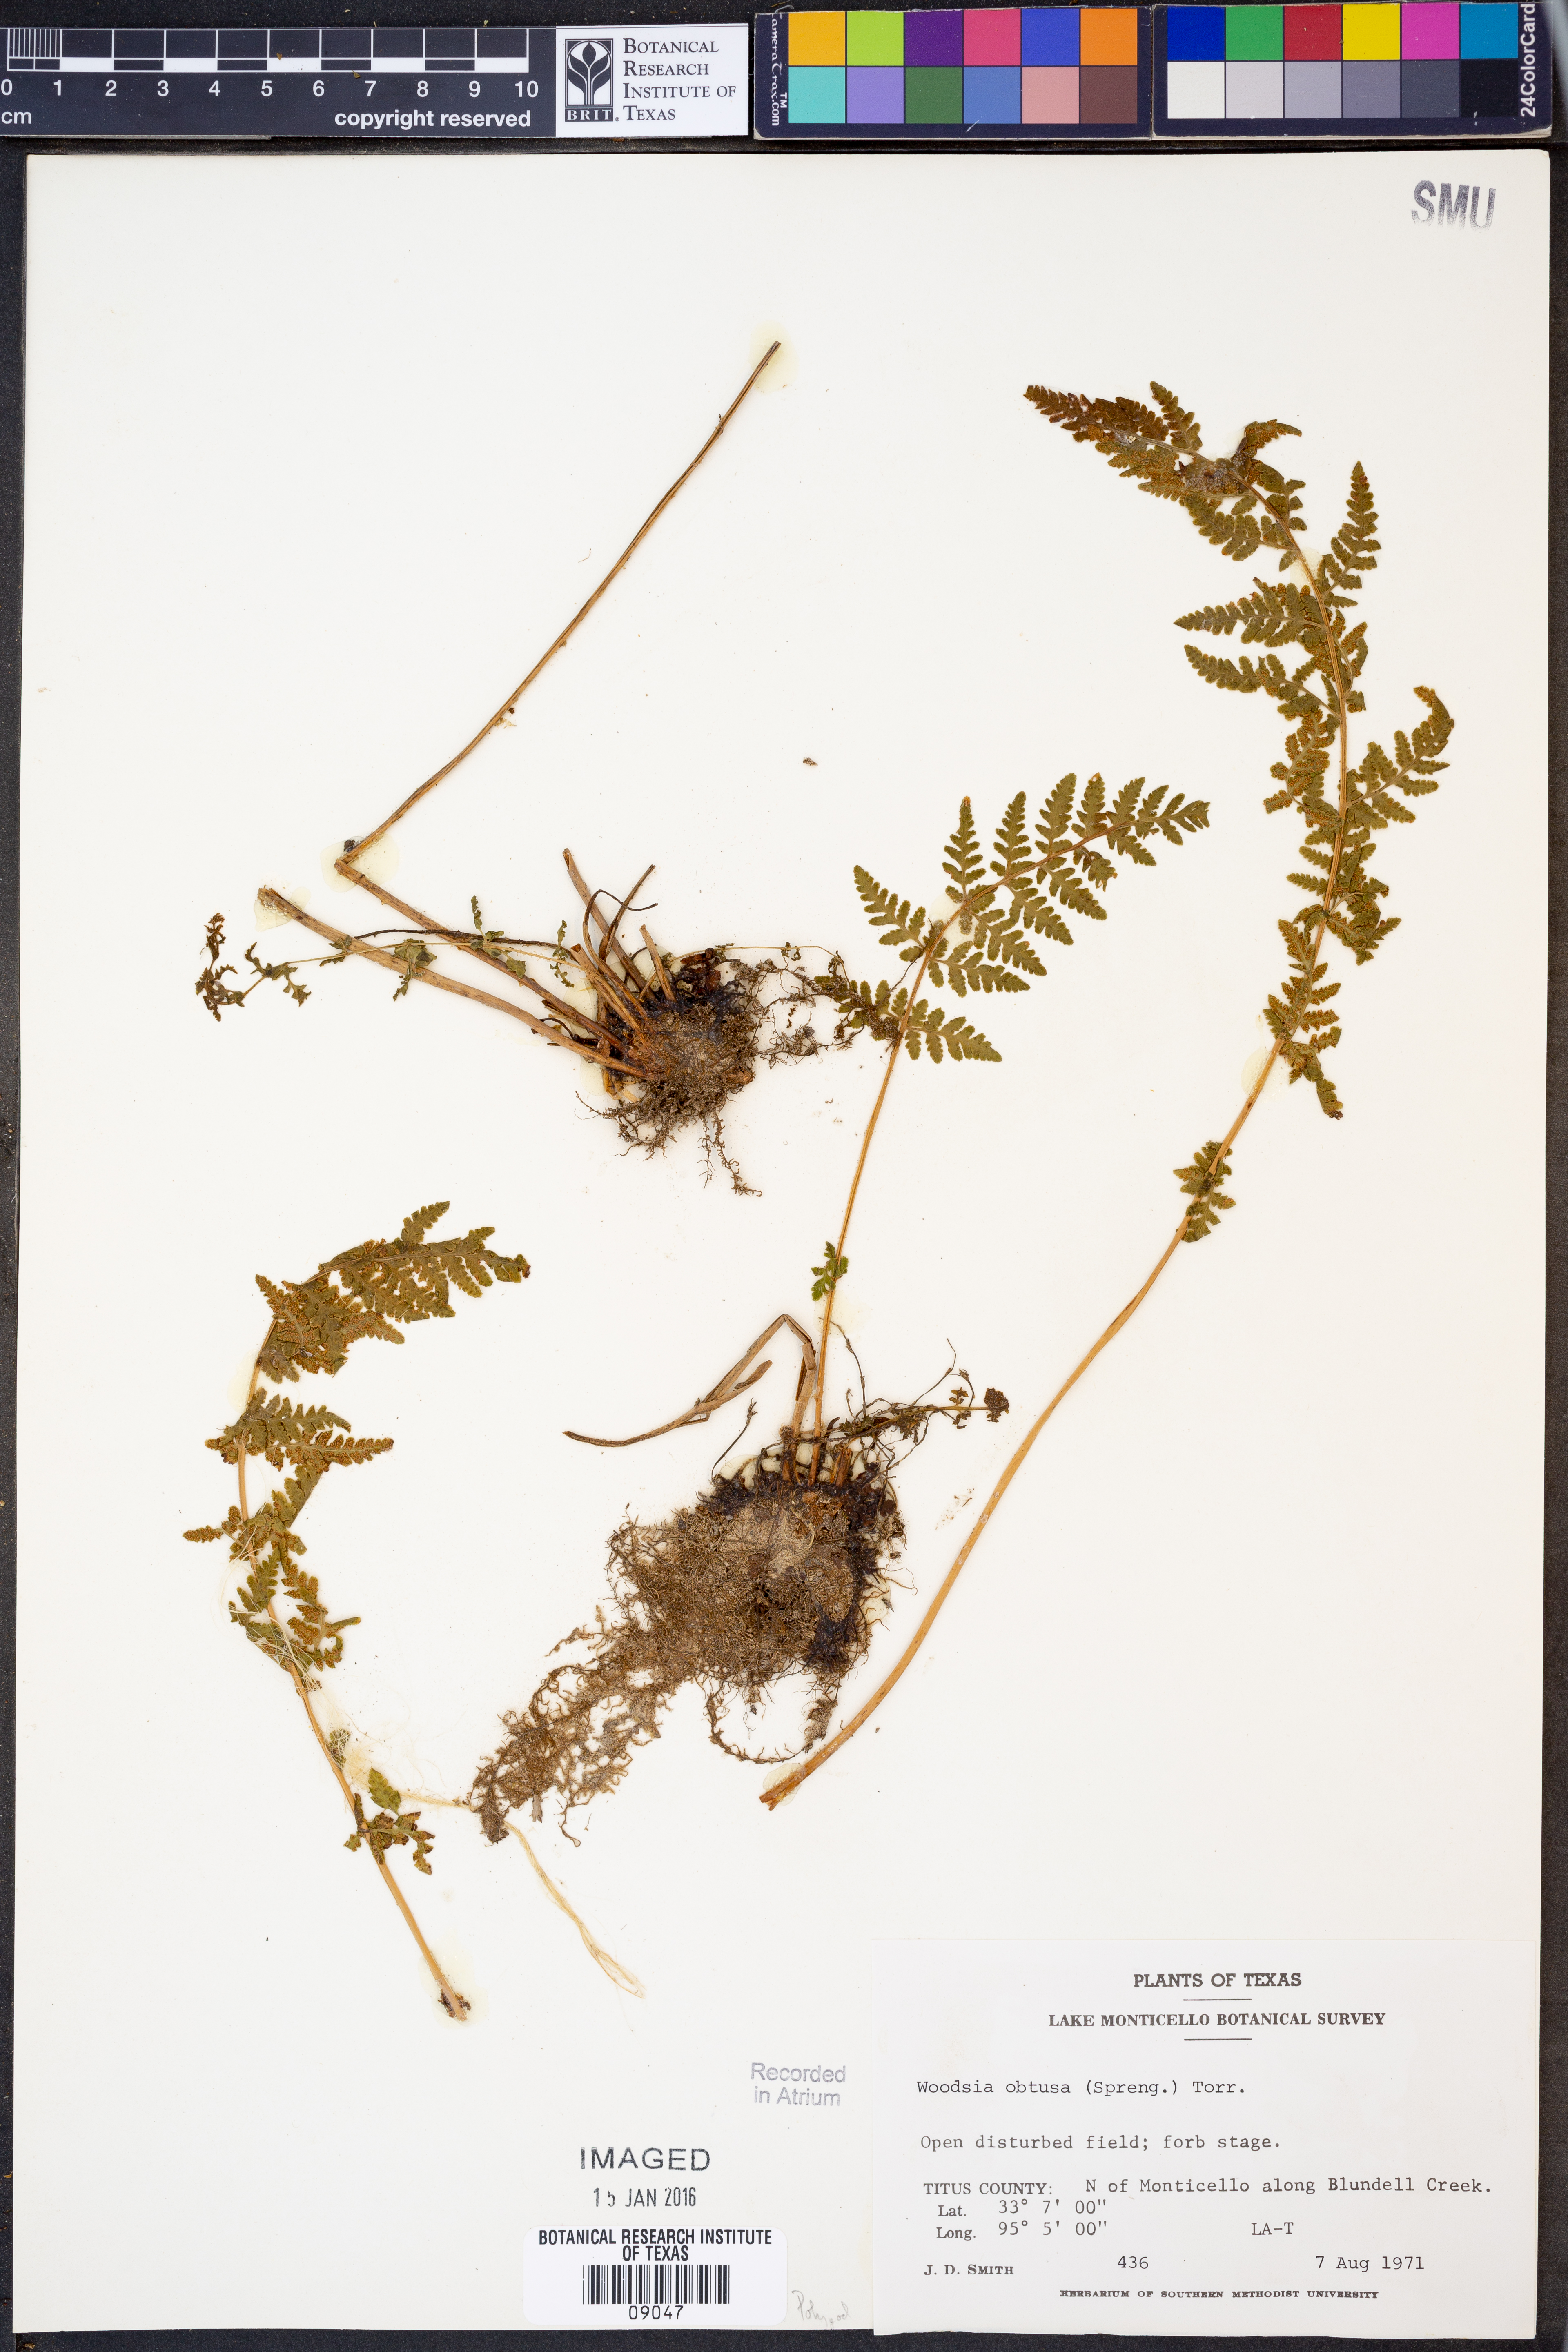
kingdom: Plantae
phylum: Tracheophyta
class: Polypodiopsida
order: Polypodiales
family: Woodsiaceae
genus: Physematium
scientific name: Physematium obtusum
